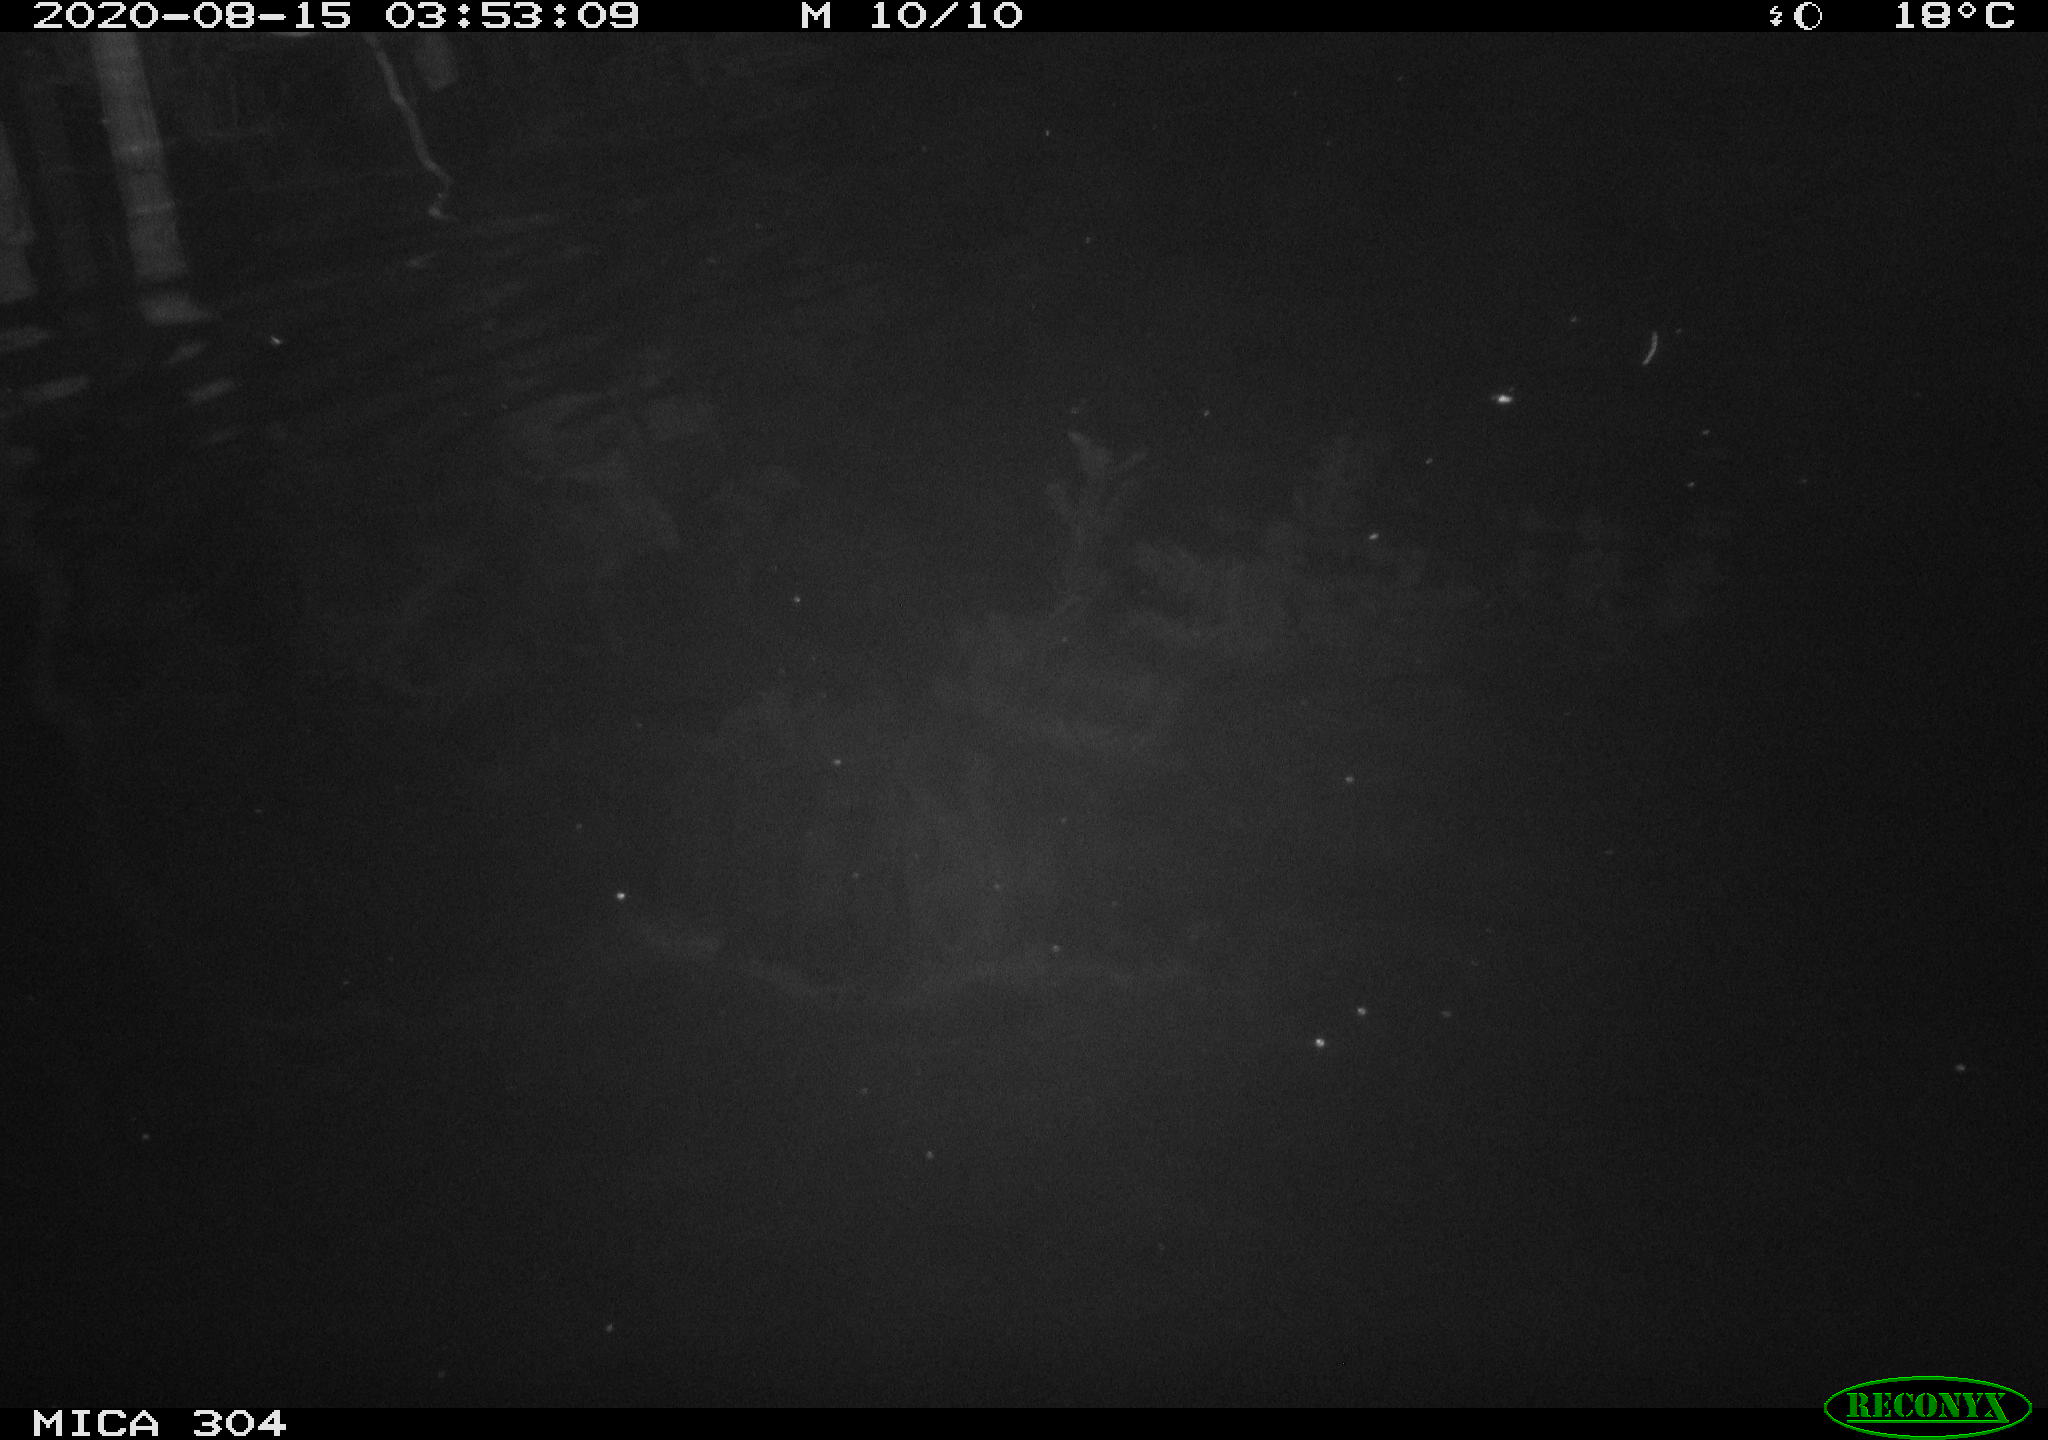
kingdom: Animalia
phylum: Chordata
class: Mammalia
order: Rodentia
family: Cricetidae
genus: Ondatra
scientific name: Ondatra zibethicus
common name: Muskrat
